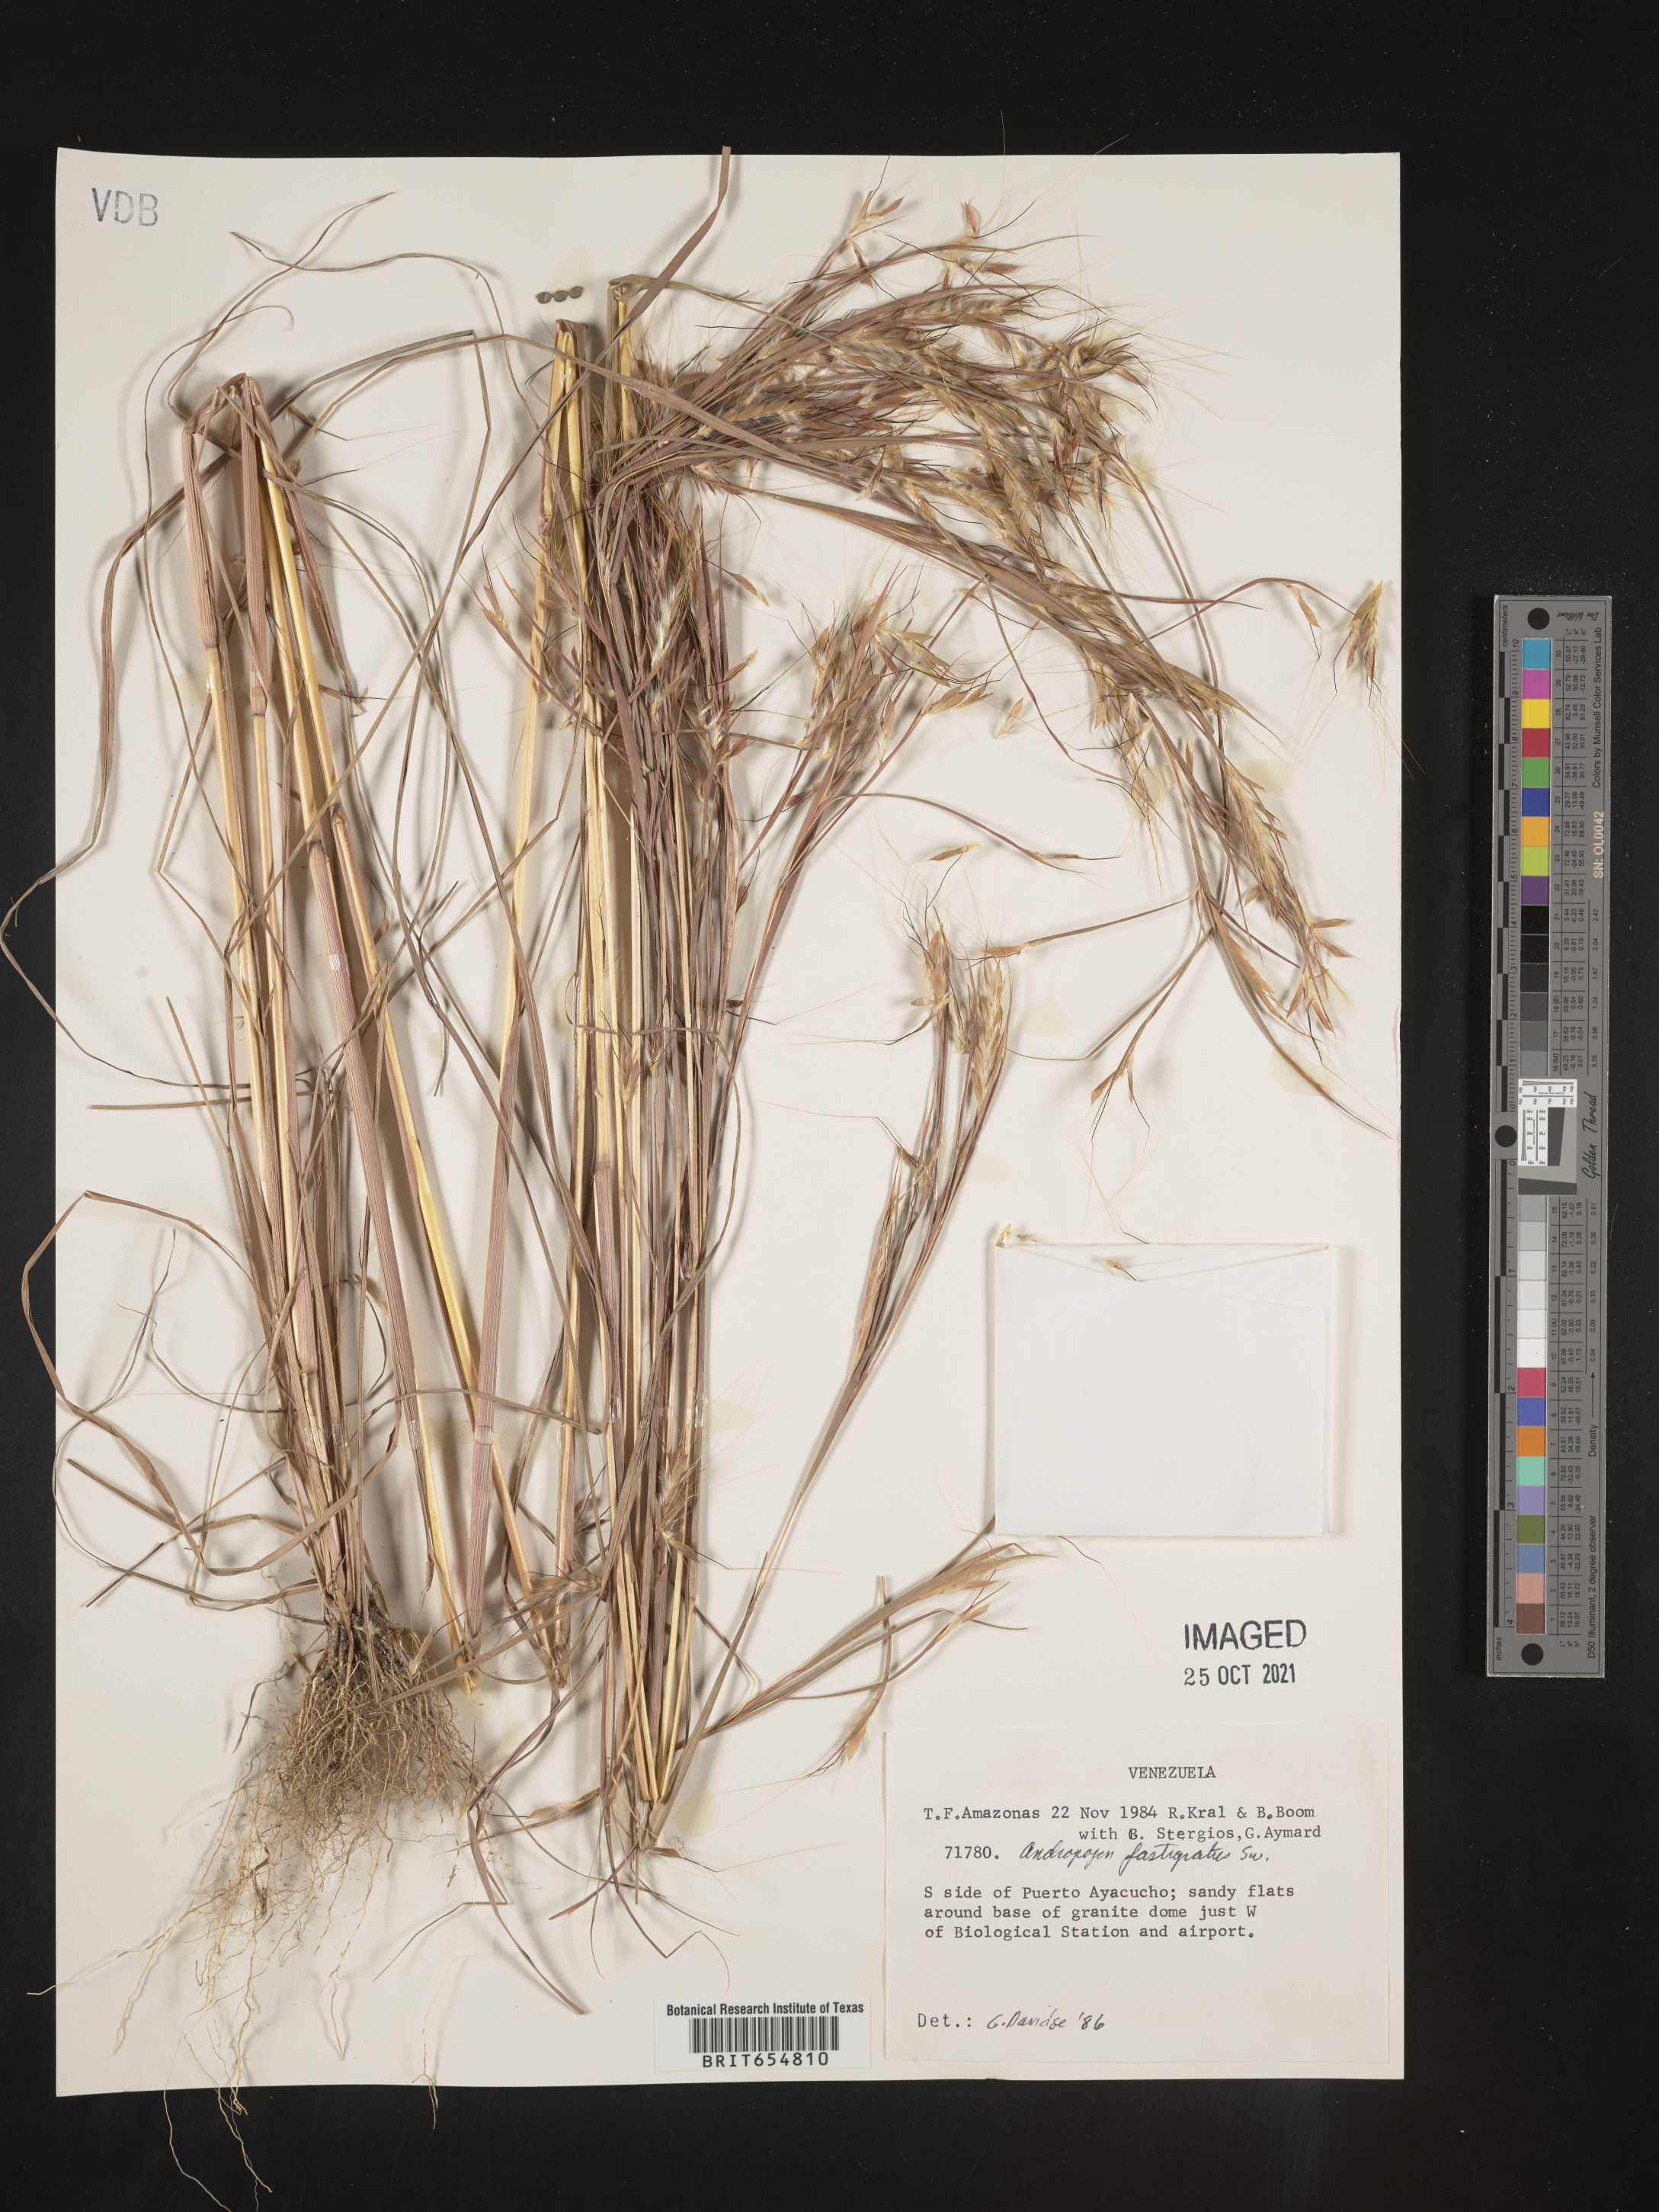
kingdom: Plantae
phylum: Tracheophyta
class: Liliopsida
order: Poales
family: Poaceae
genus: Andropogon
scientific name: Andropogon
